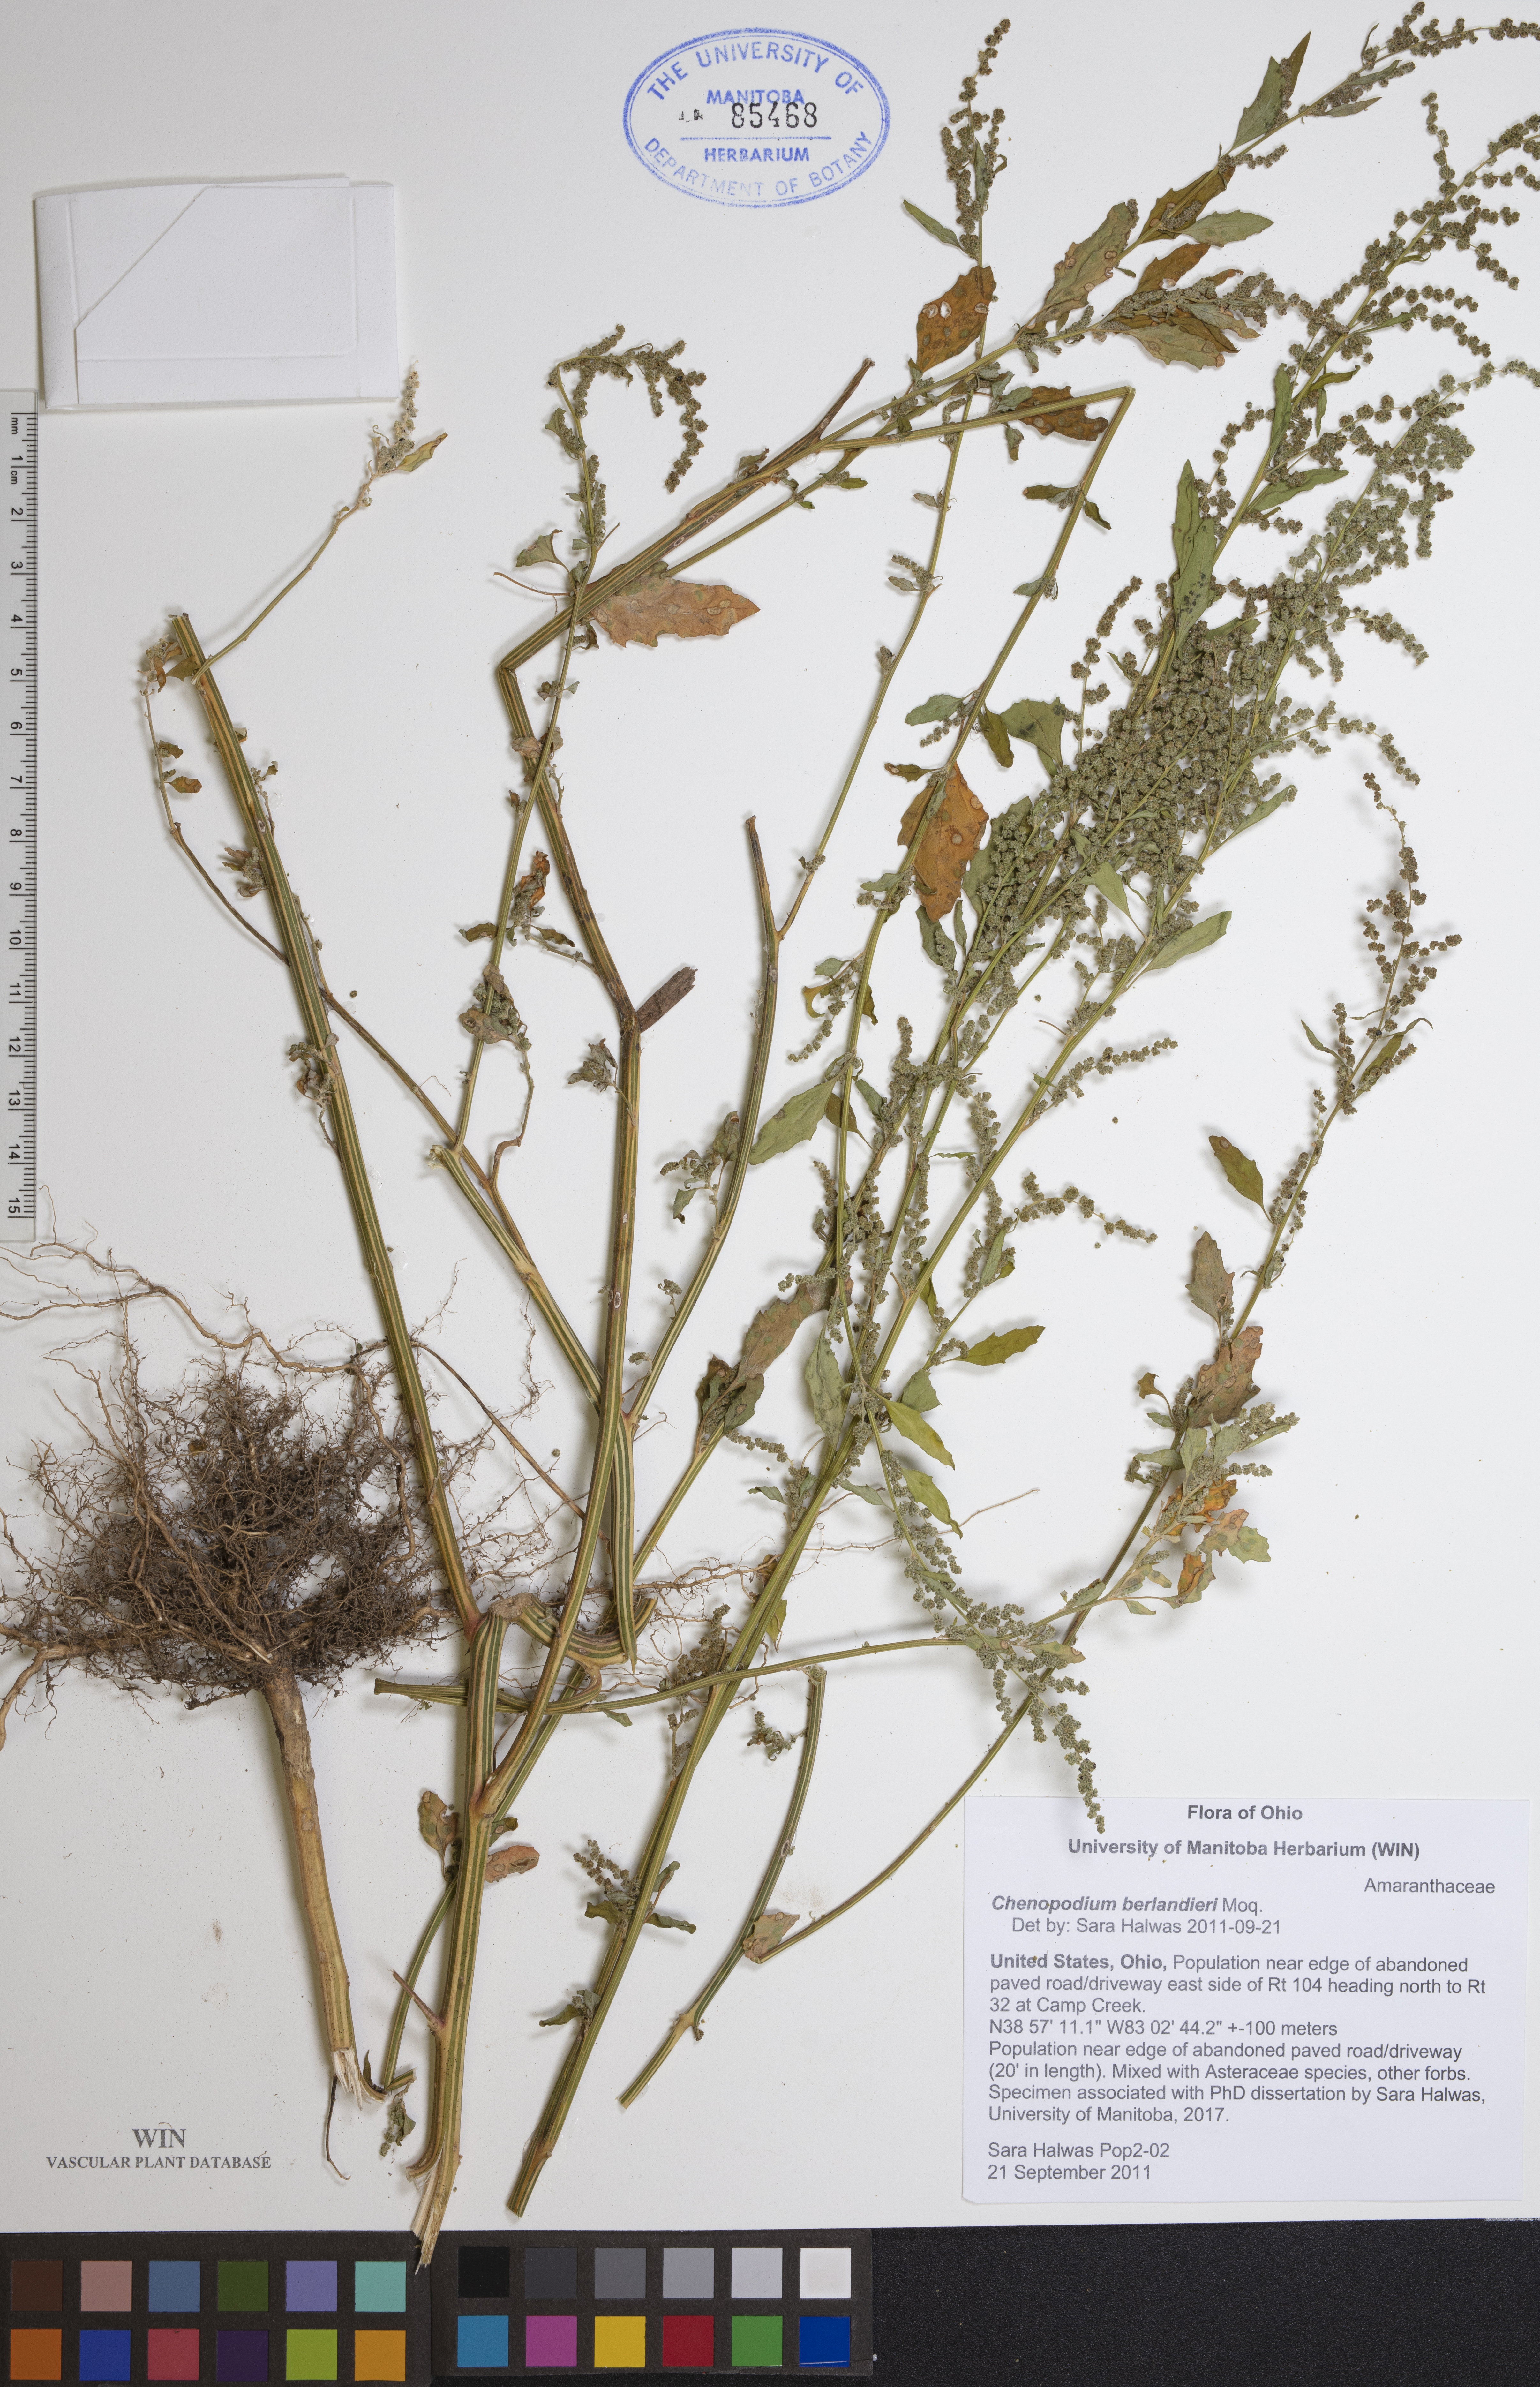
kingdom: Plantae
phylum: Tracheophyta
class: Magnoliopsida
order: Caryophyllales
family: Amaranthaceae
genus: Chenopodium
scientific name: Chenopodium berlandieri
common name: Pit-seed goosefoot
